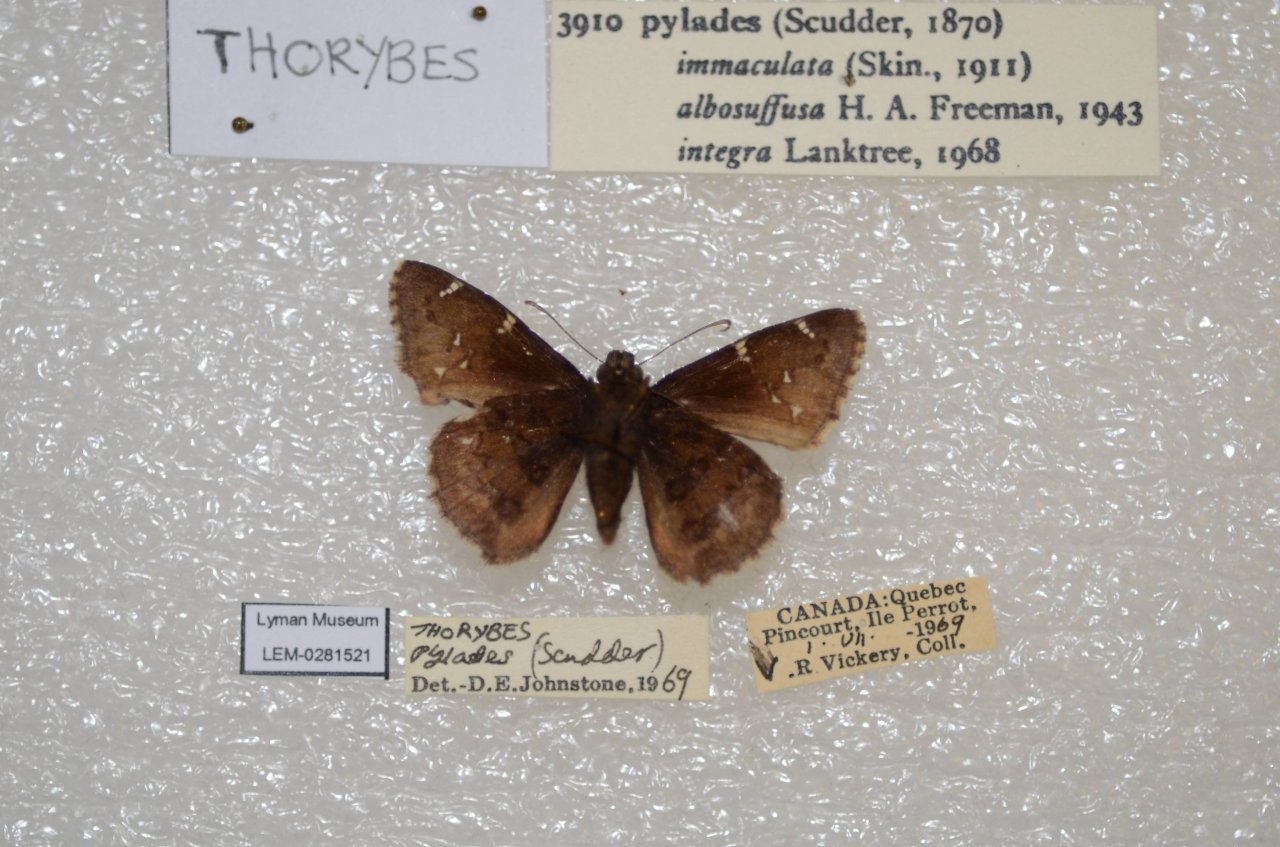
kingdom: Animalia
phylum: Arthropoda
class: Insecta
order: Lepidoptera
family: Hesperiidae
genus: Autochton
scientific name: Autochton
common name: Northern Cloudywing
